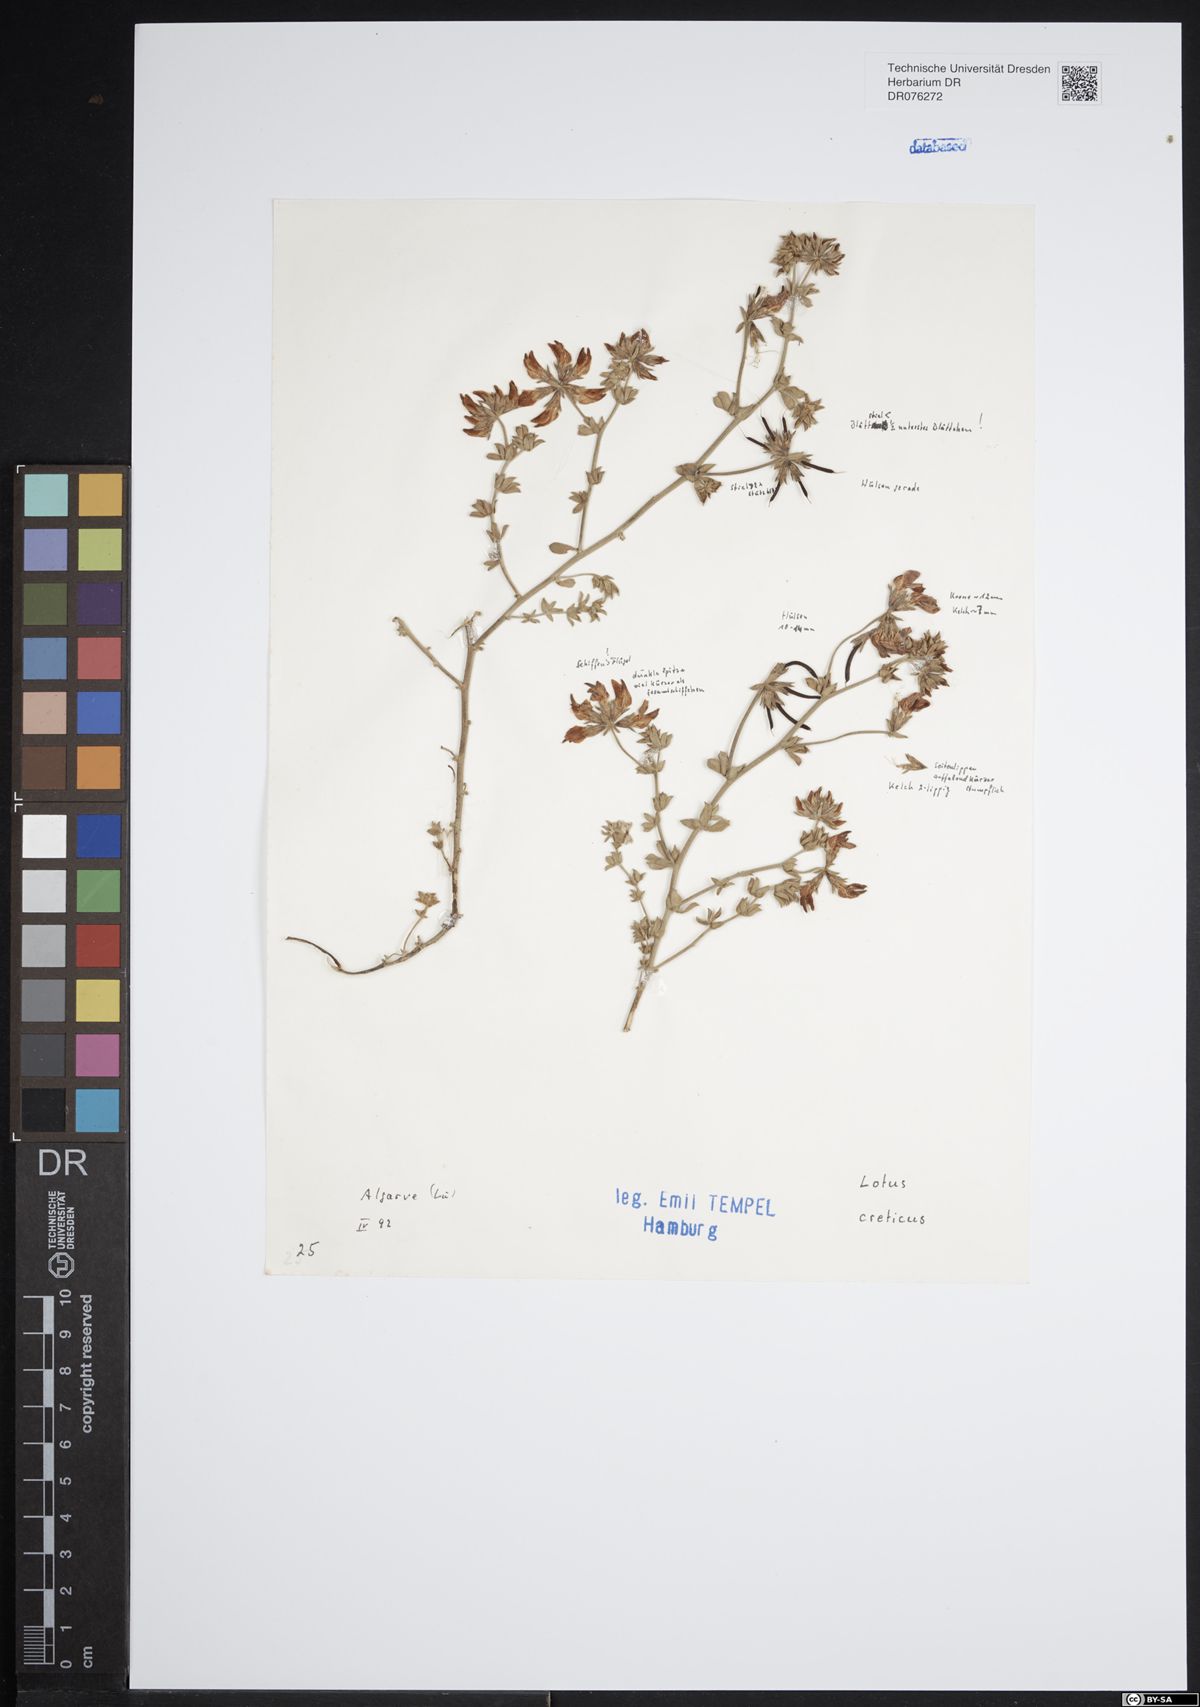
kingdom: Plantae
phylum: Tracheophyta
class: Magnoliopsida
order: Fabales
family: Fabaceae
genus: Lotus
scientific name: Lotus creticus
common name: Cretan bird's-foot trefoil
